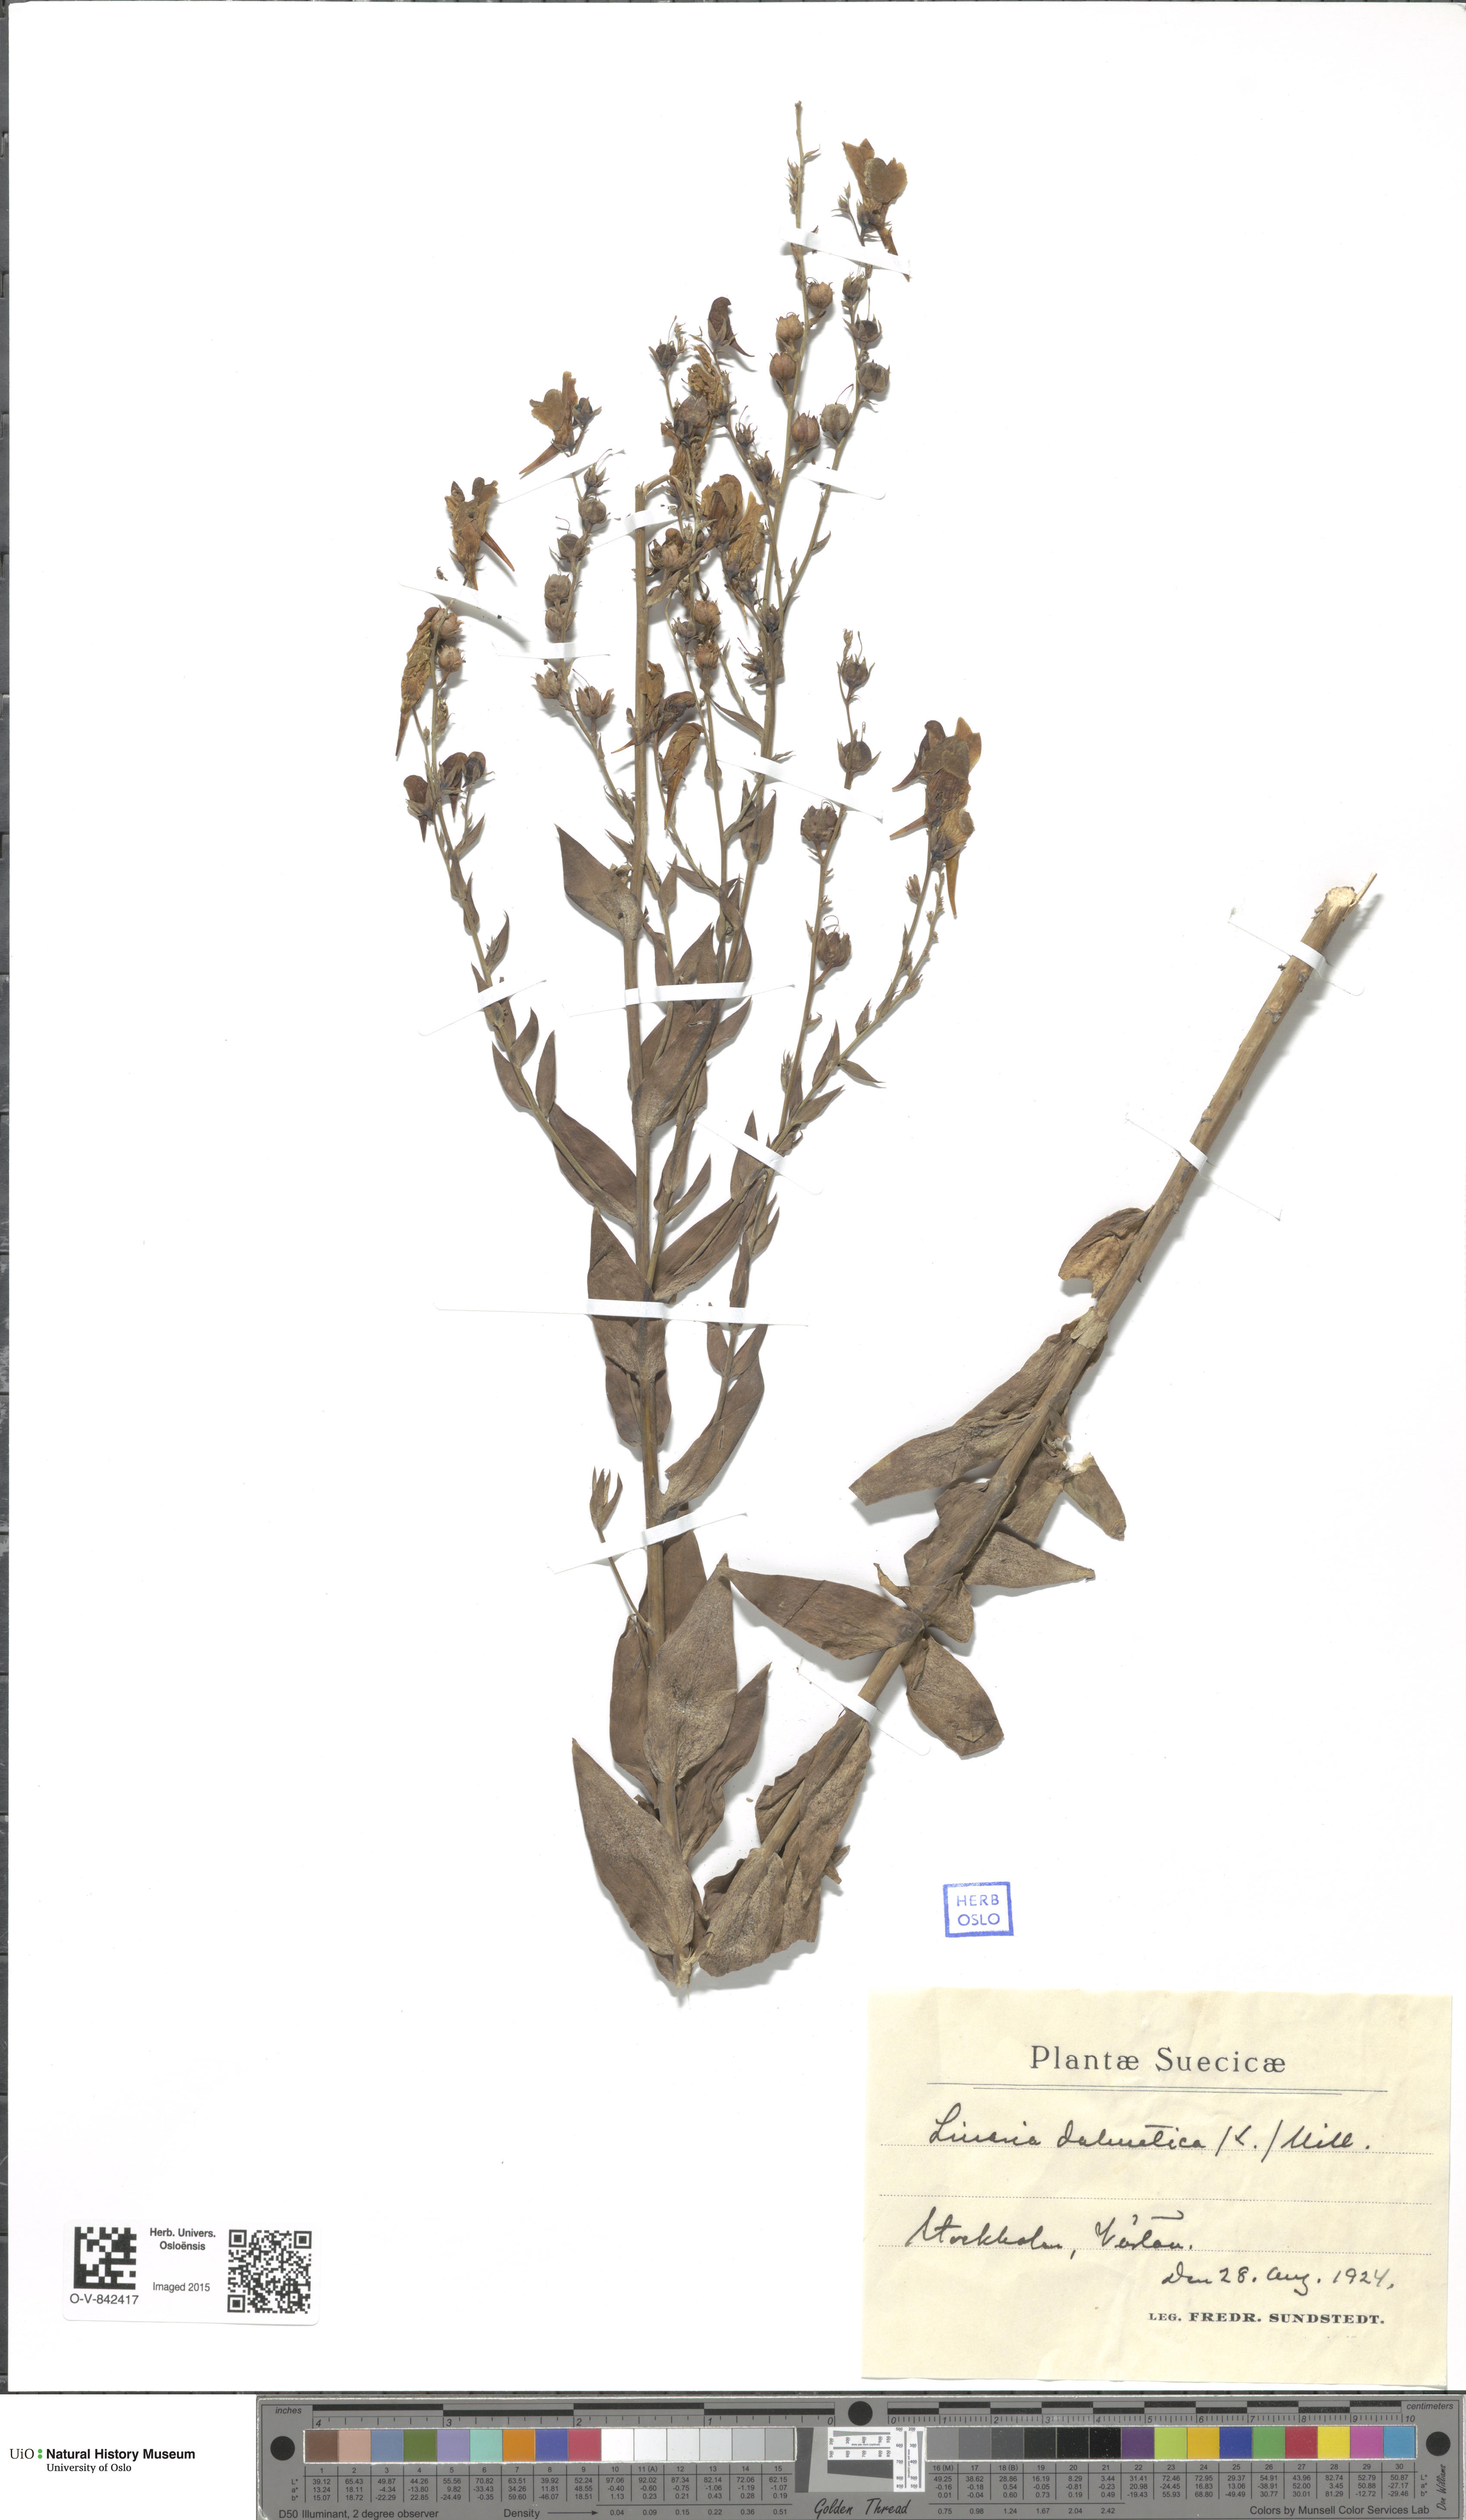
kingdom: Plantae
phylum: Tracheophyta
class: Magnoliopsida
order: Lamiales
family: Plantaginaceae
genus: Linaria
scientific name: Linaria dalmatica
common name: Dalmatian toadflax
